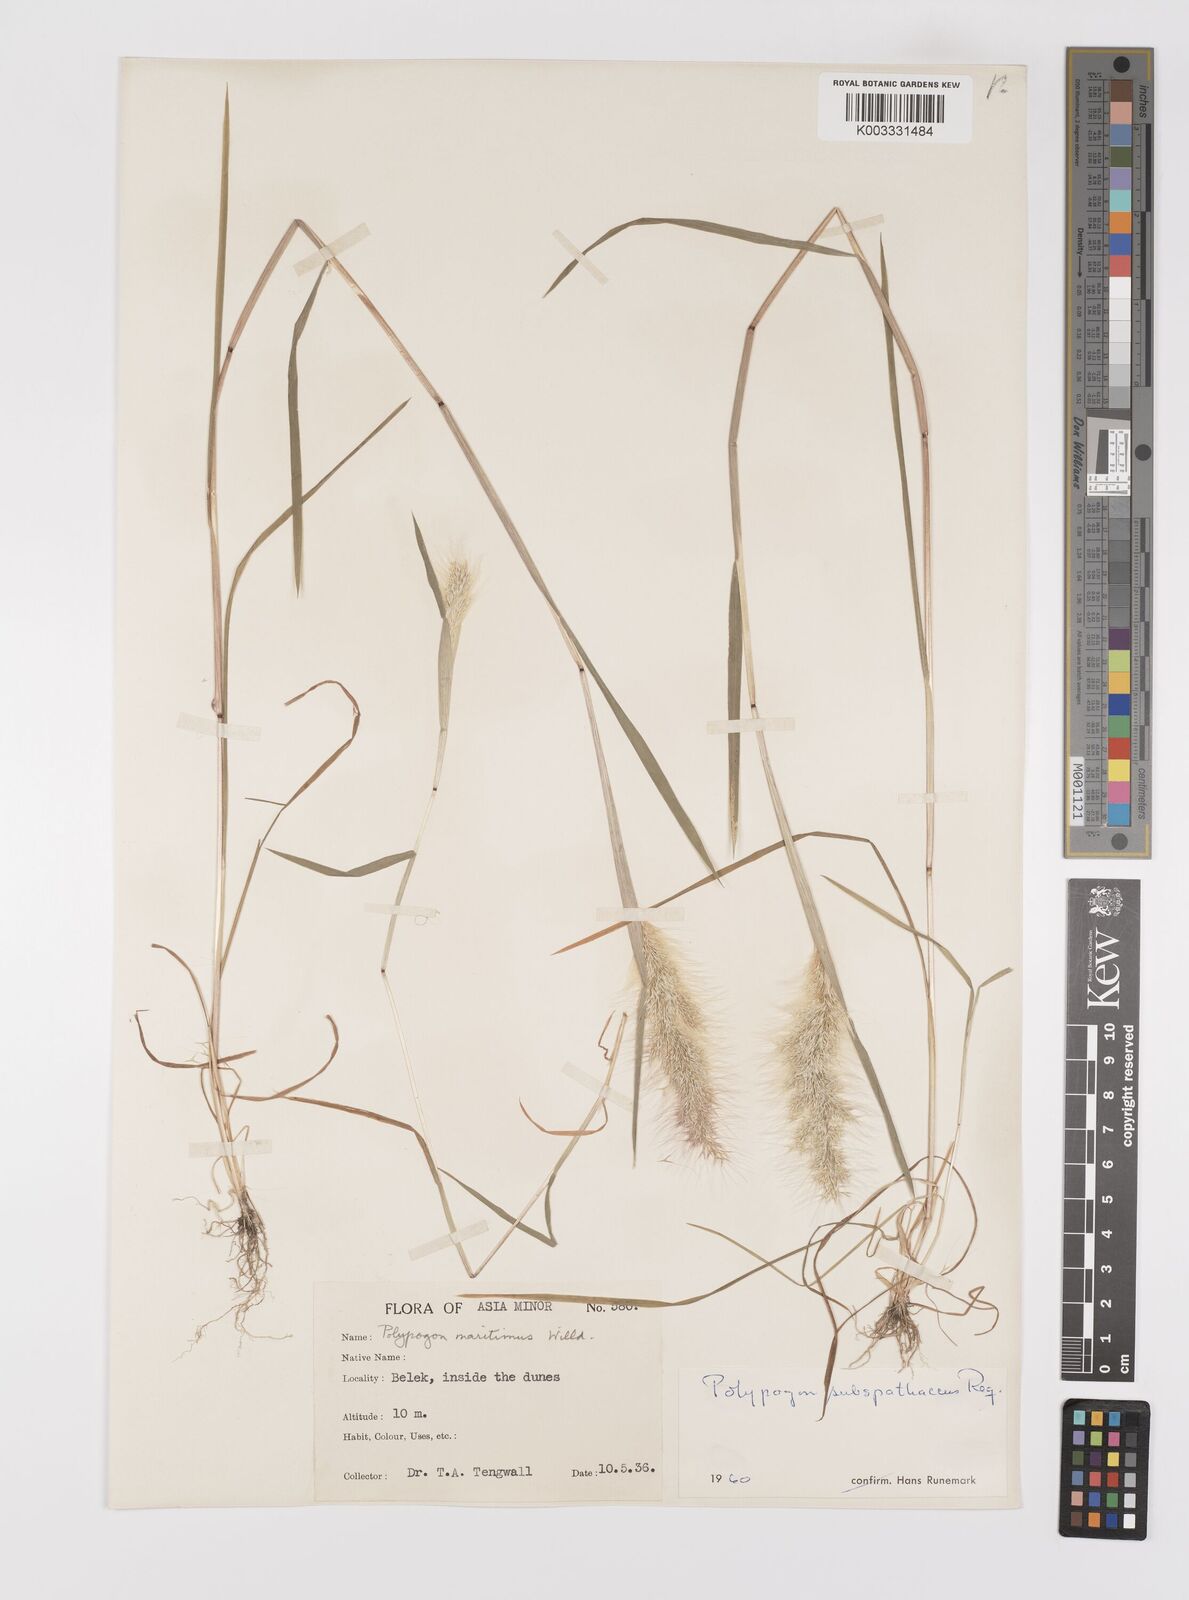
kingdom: Plantae
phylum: Tracheophyta
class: Liliopsida
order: Poales
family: Poaceae
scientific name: Poaceae
